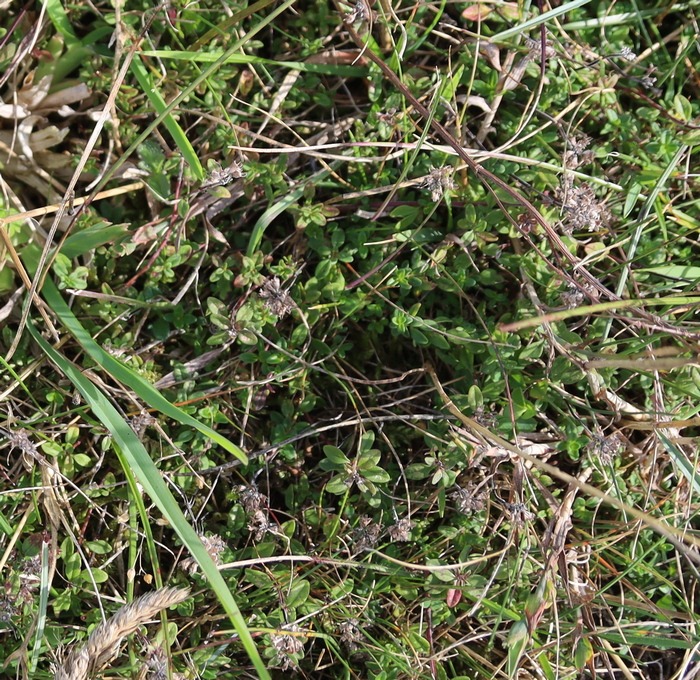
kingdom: Plantae
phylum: Tracheophyta
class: Magnoliopsida
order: Lamiales
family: Lamiaceae
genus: Thymus
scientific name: Thymus pulegioides
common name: Bredbladet timian
